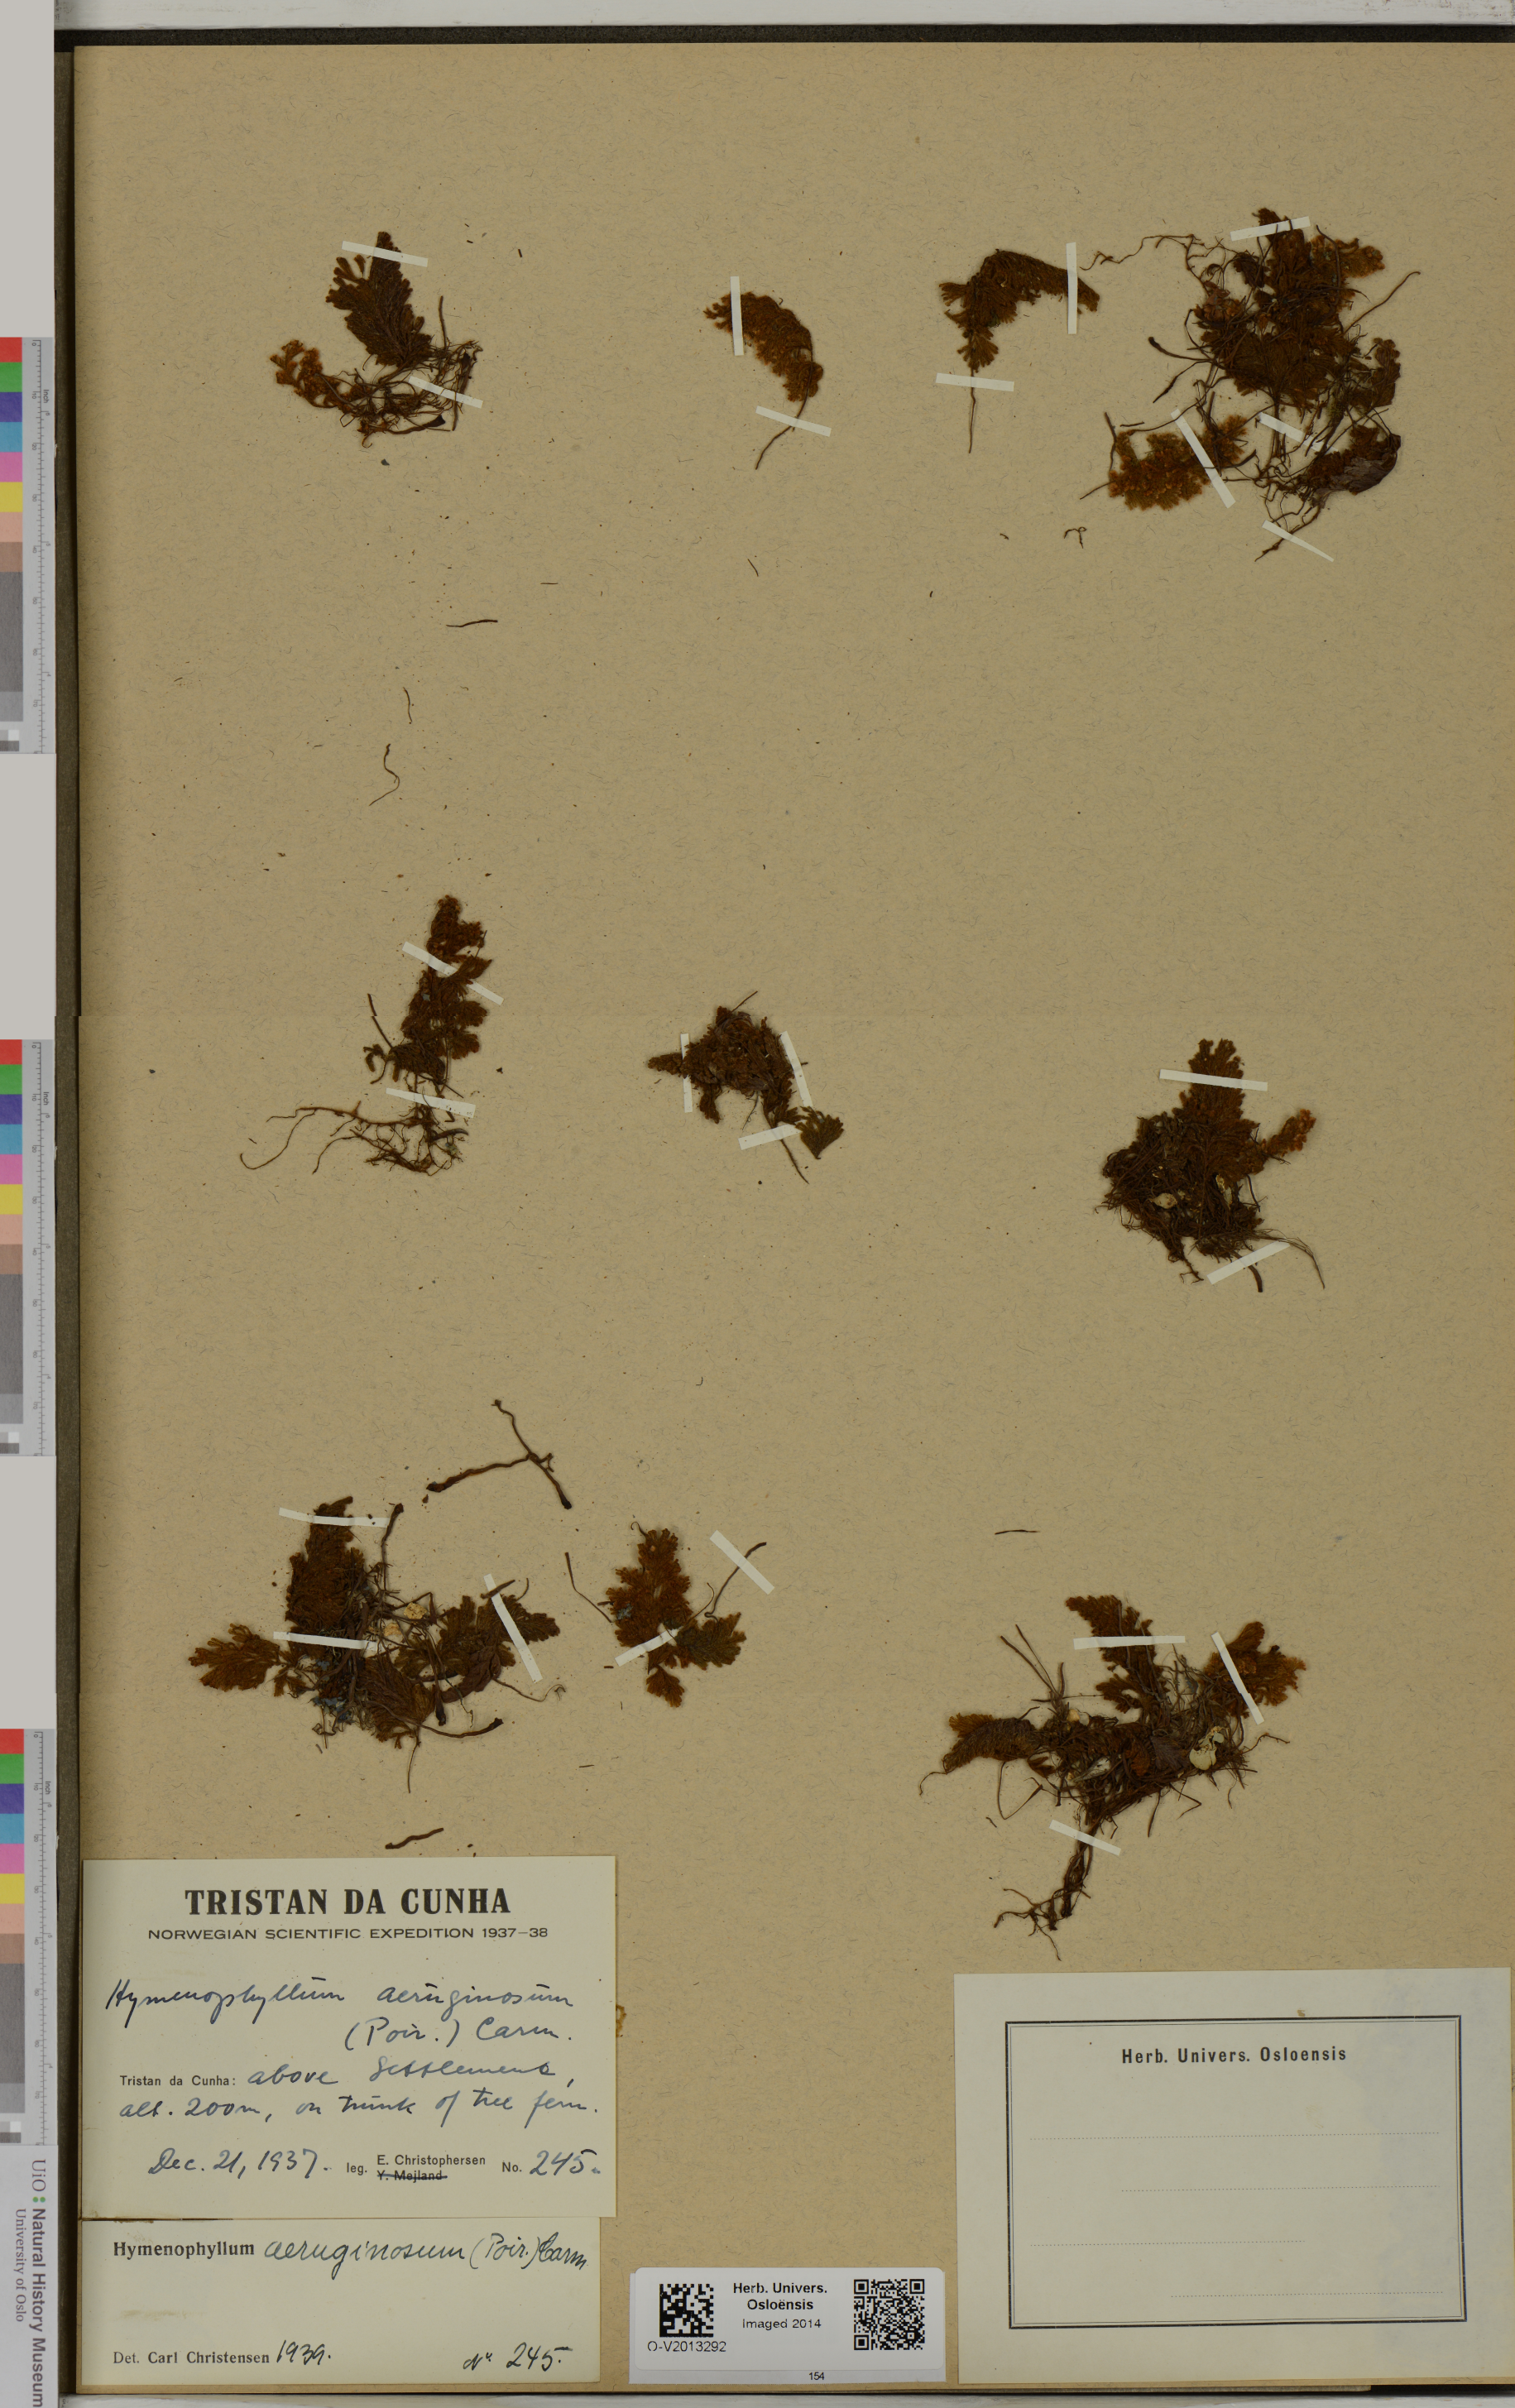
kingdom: Plantae
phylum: Tracheophyta
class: Polypodiopsida
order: Hymenophyllales
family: Hymenophyllaceae
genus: Hymenophyllum
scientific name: Hymenophyllum aeruginosum
